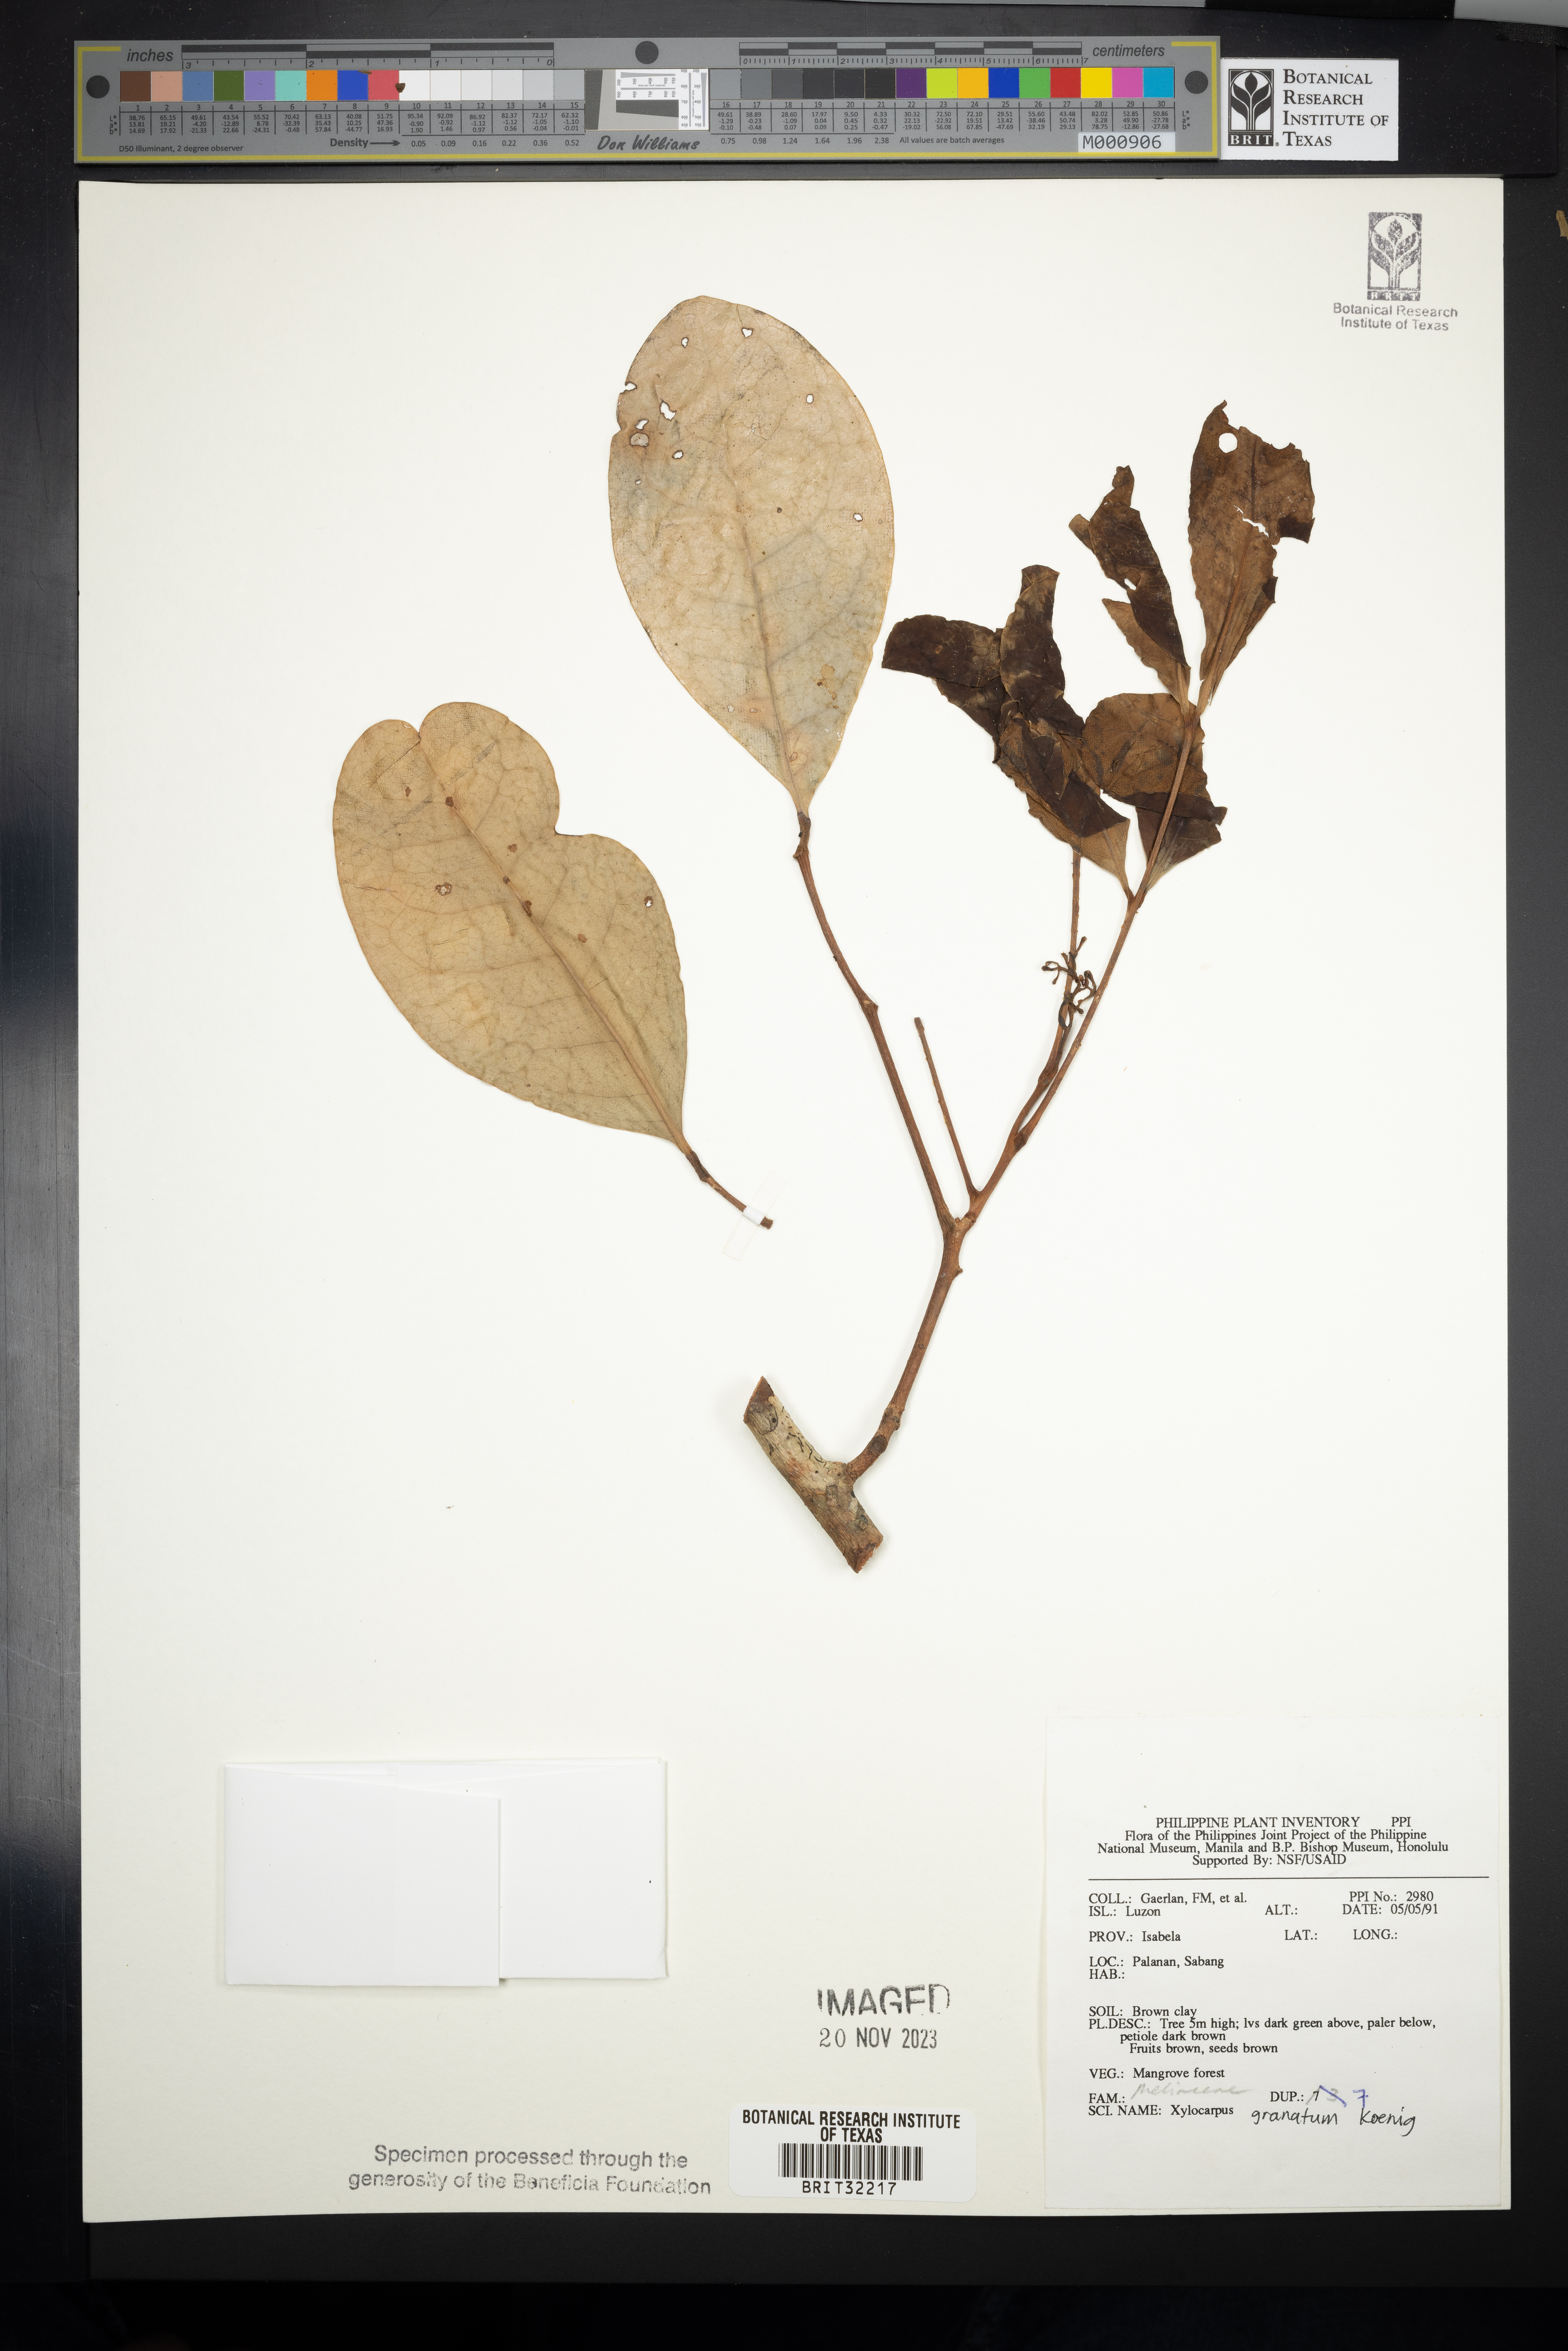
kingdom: Plantae
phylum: Tracheophyta
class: Magnoliopsida
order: Sapindales
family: Meliaceae
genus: Xylocarpus
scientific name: Xylocarpus granatum
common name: Apple mangrove
